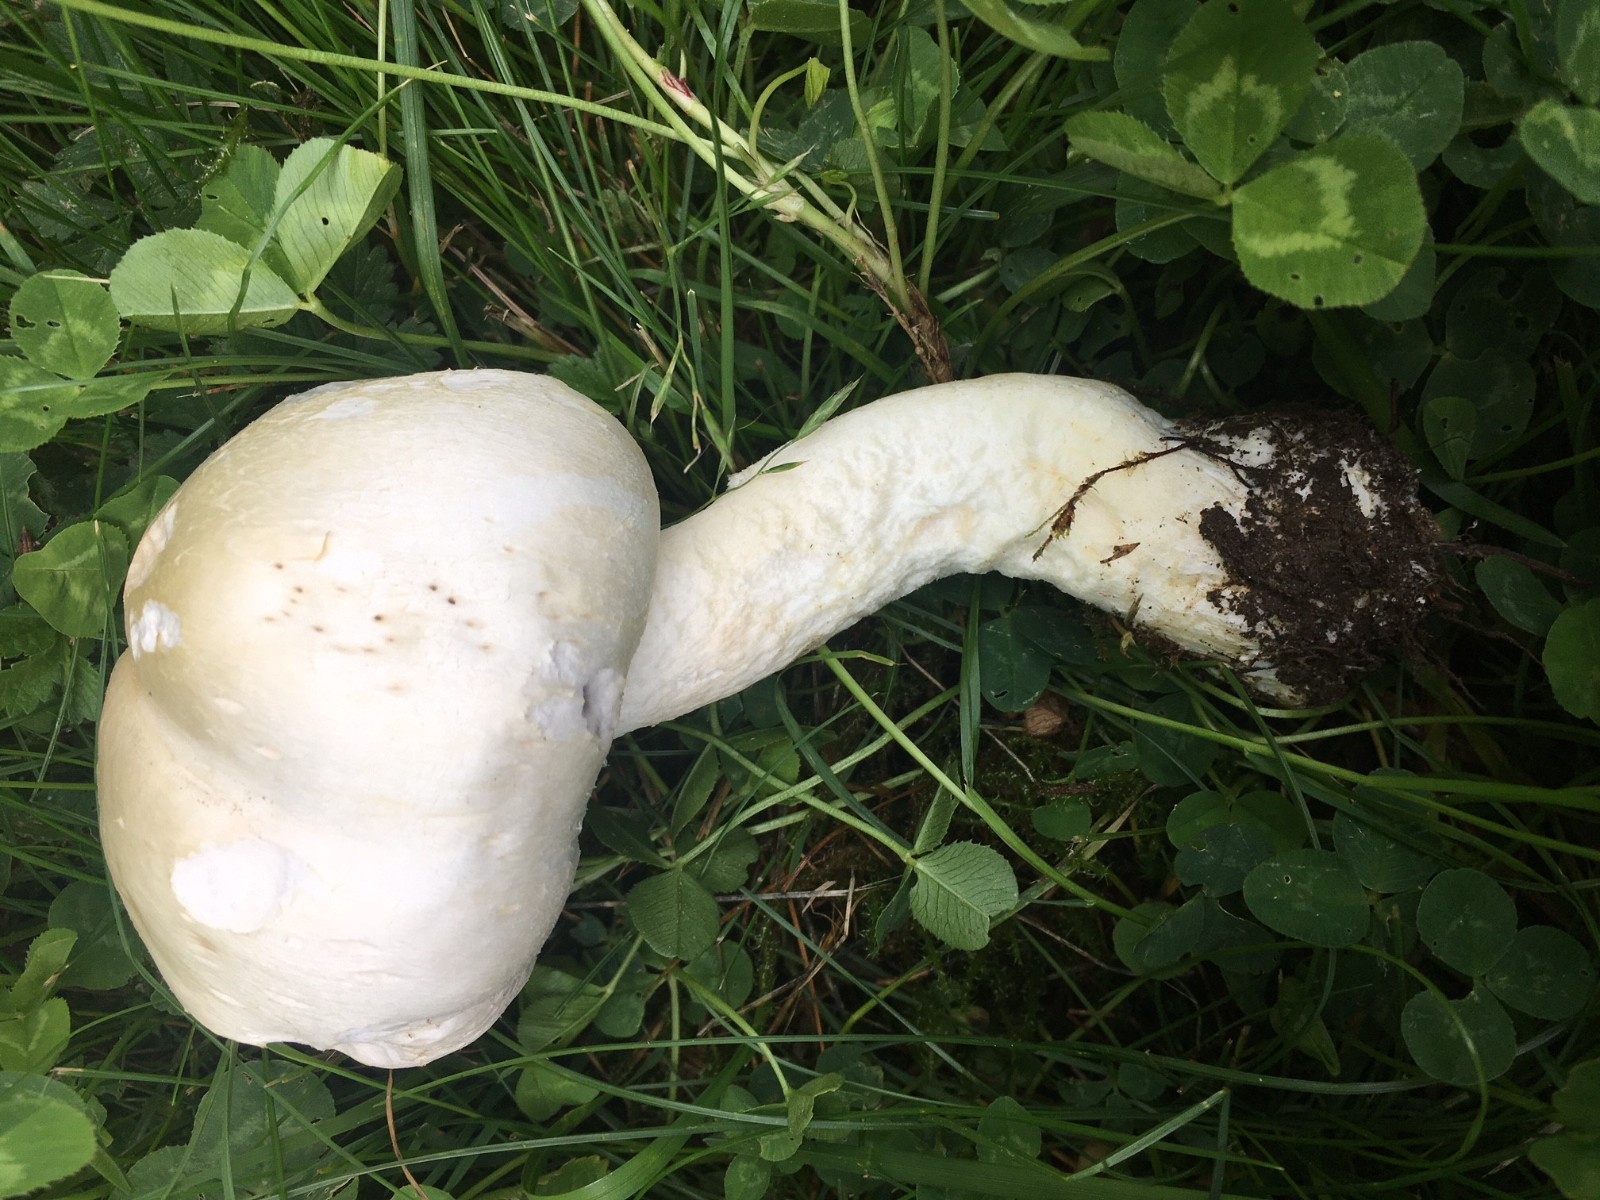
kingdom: Fungi
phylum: Basidiomycota
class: Agaricomycetes
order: Agaricales
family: Agaricaceae
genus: Agaricus
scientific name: Agaricus arvensis
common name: ager-champignon
